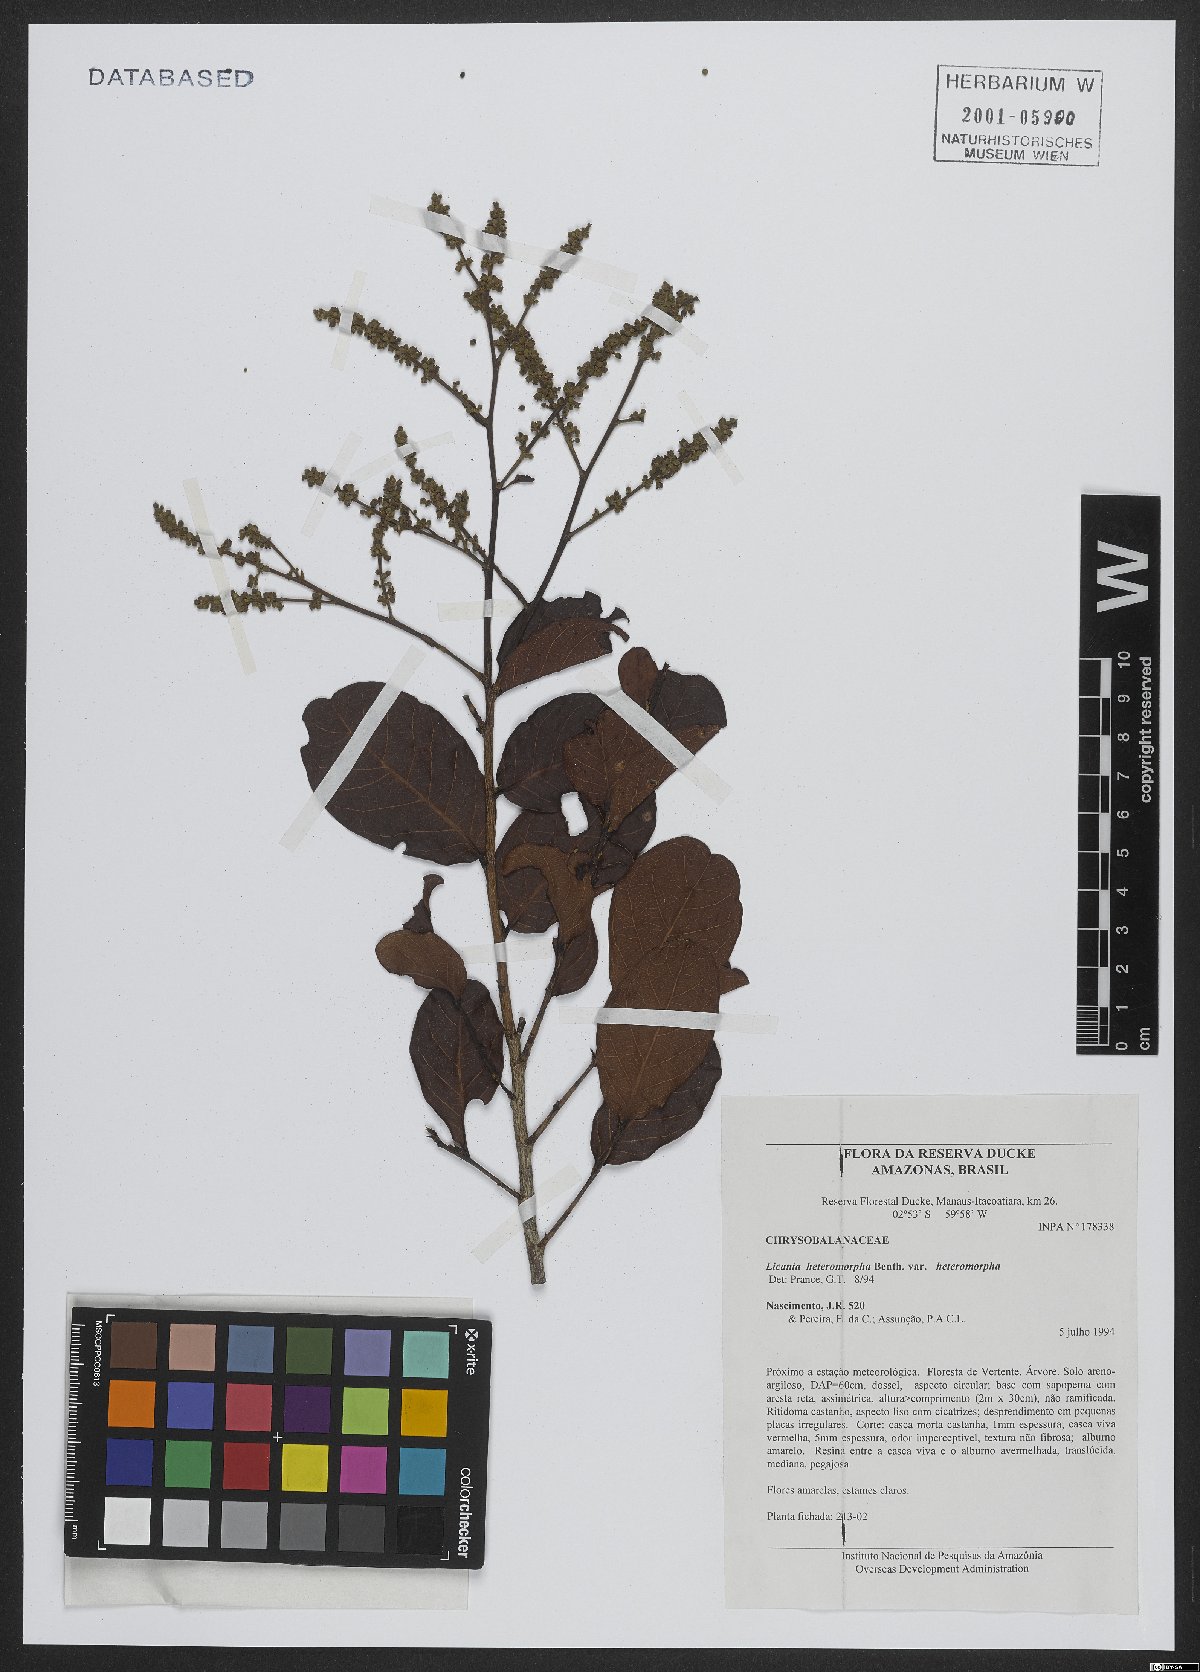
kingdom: Plantae
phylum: Tracheophyta
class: Magnoliopsida
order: Malpighiales
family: Chrysobalanaceae
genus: Hymenopus
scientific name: Hymenopus heteromorphus
